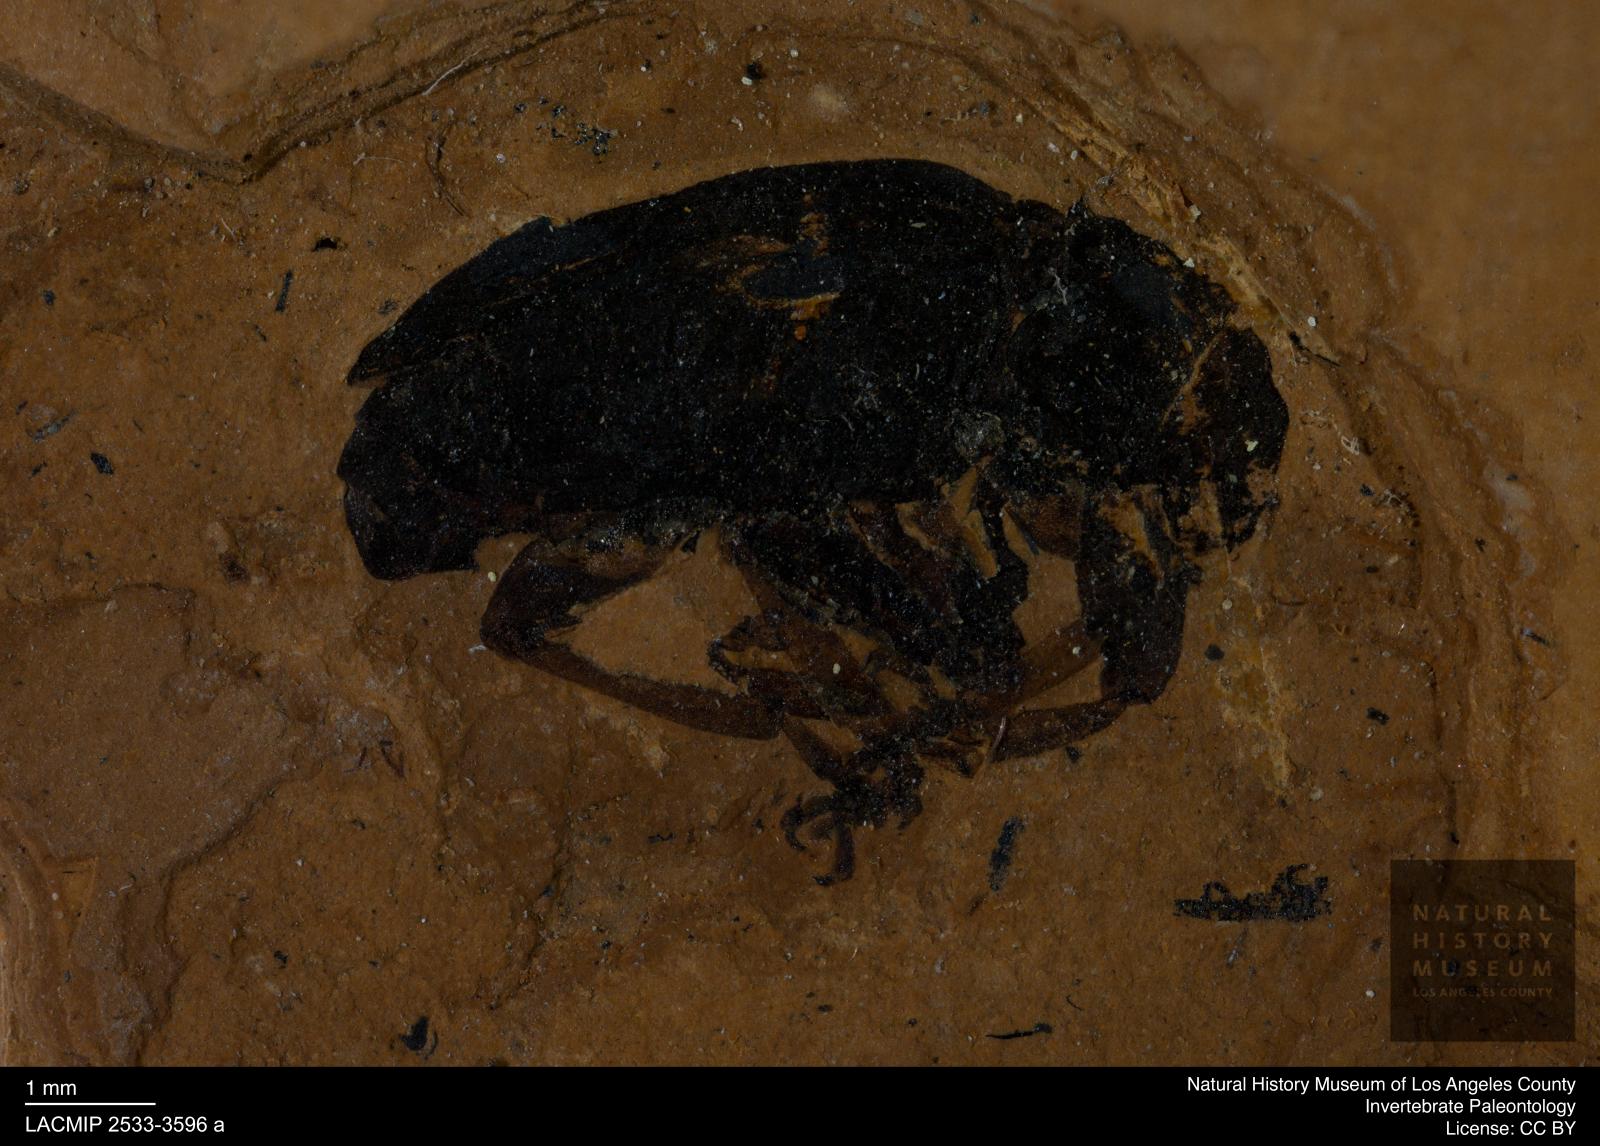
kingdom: Animalia
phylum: Arthropoda
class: Insecta
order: Coleoptera
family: Curculionidae
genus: Rhinocyllus
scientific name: Rhinocyllus
